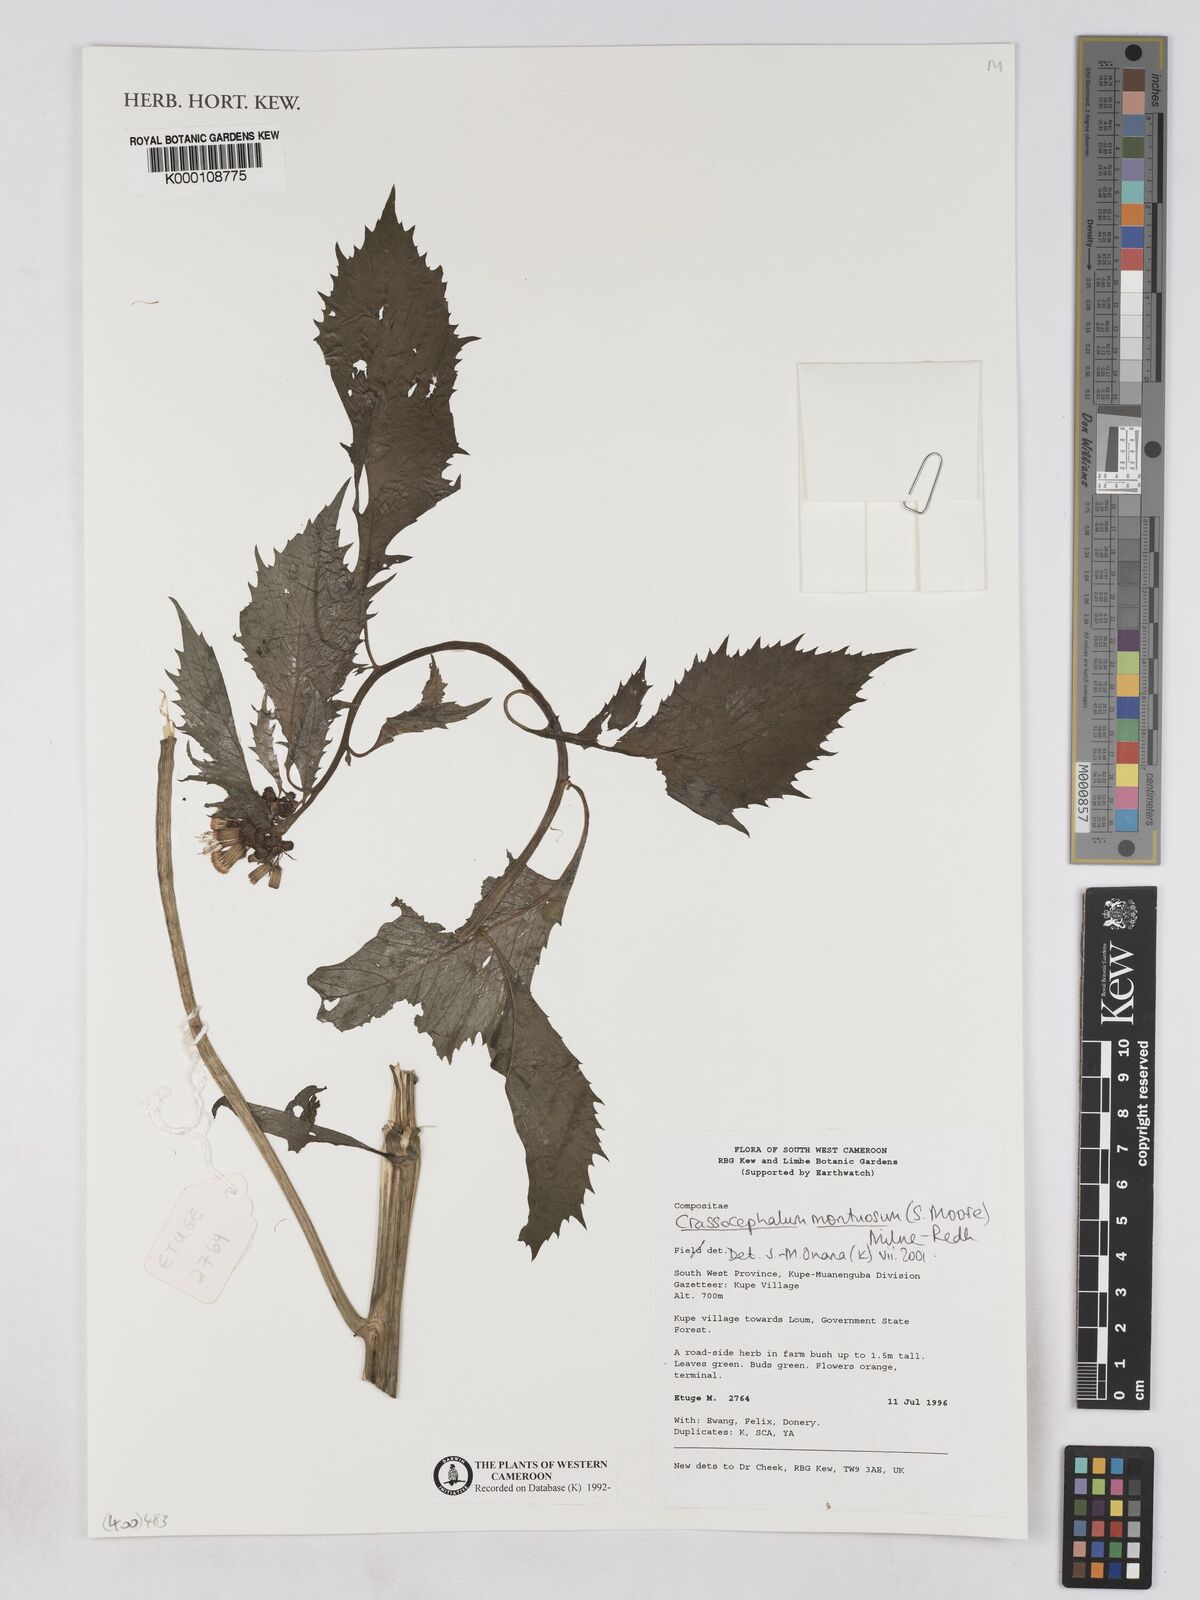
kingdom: Plantae
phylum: Tracheophyta
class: Magnoliopsida
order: Asterales
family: Asteraceae
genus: Crassocephalum
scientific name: Crassocephalum montuosum
